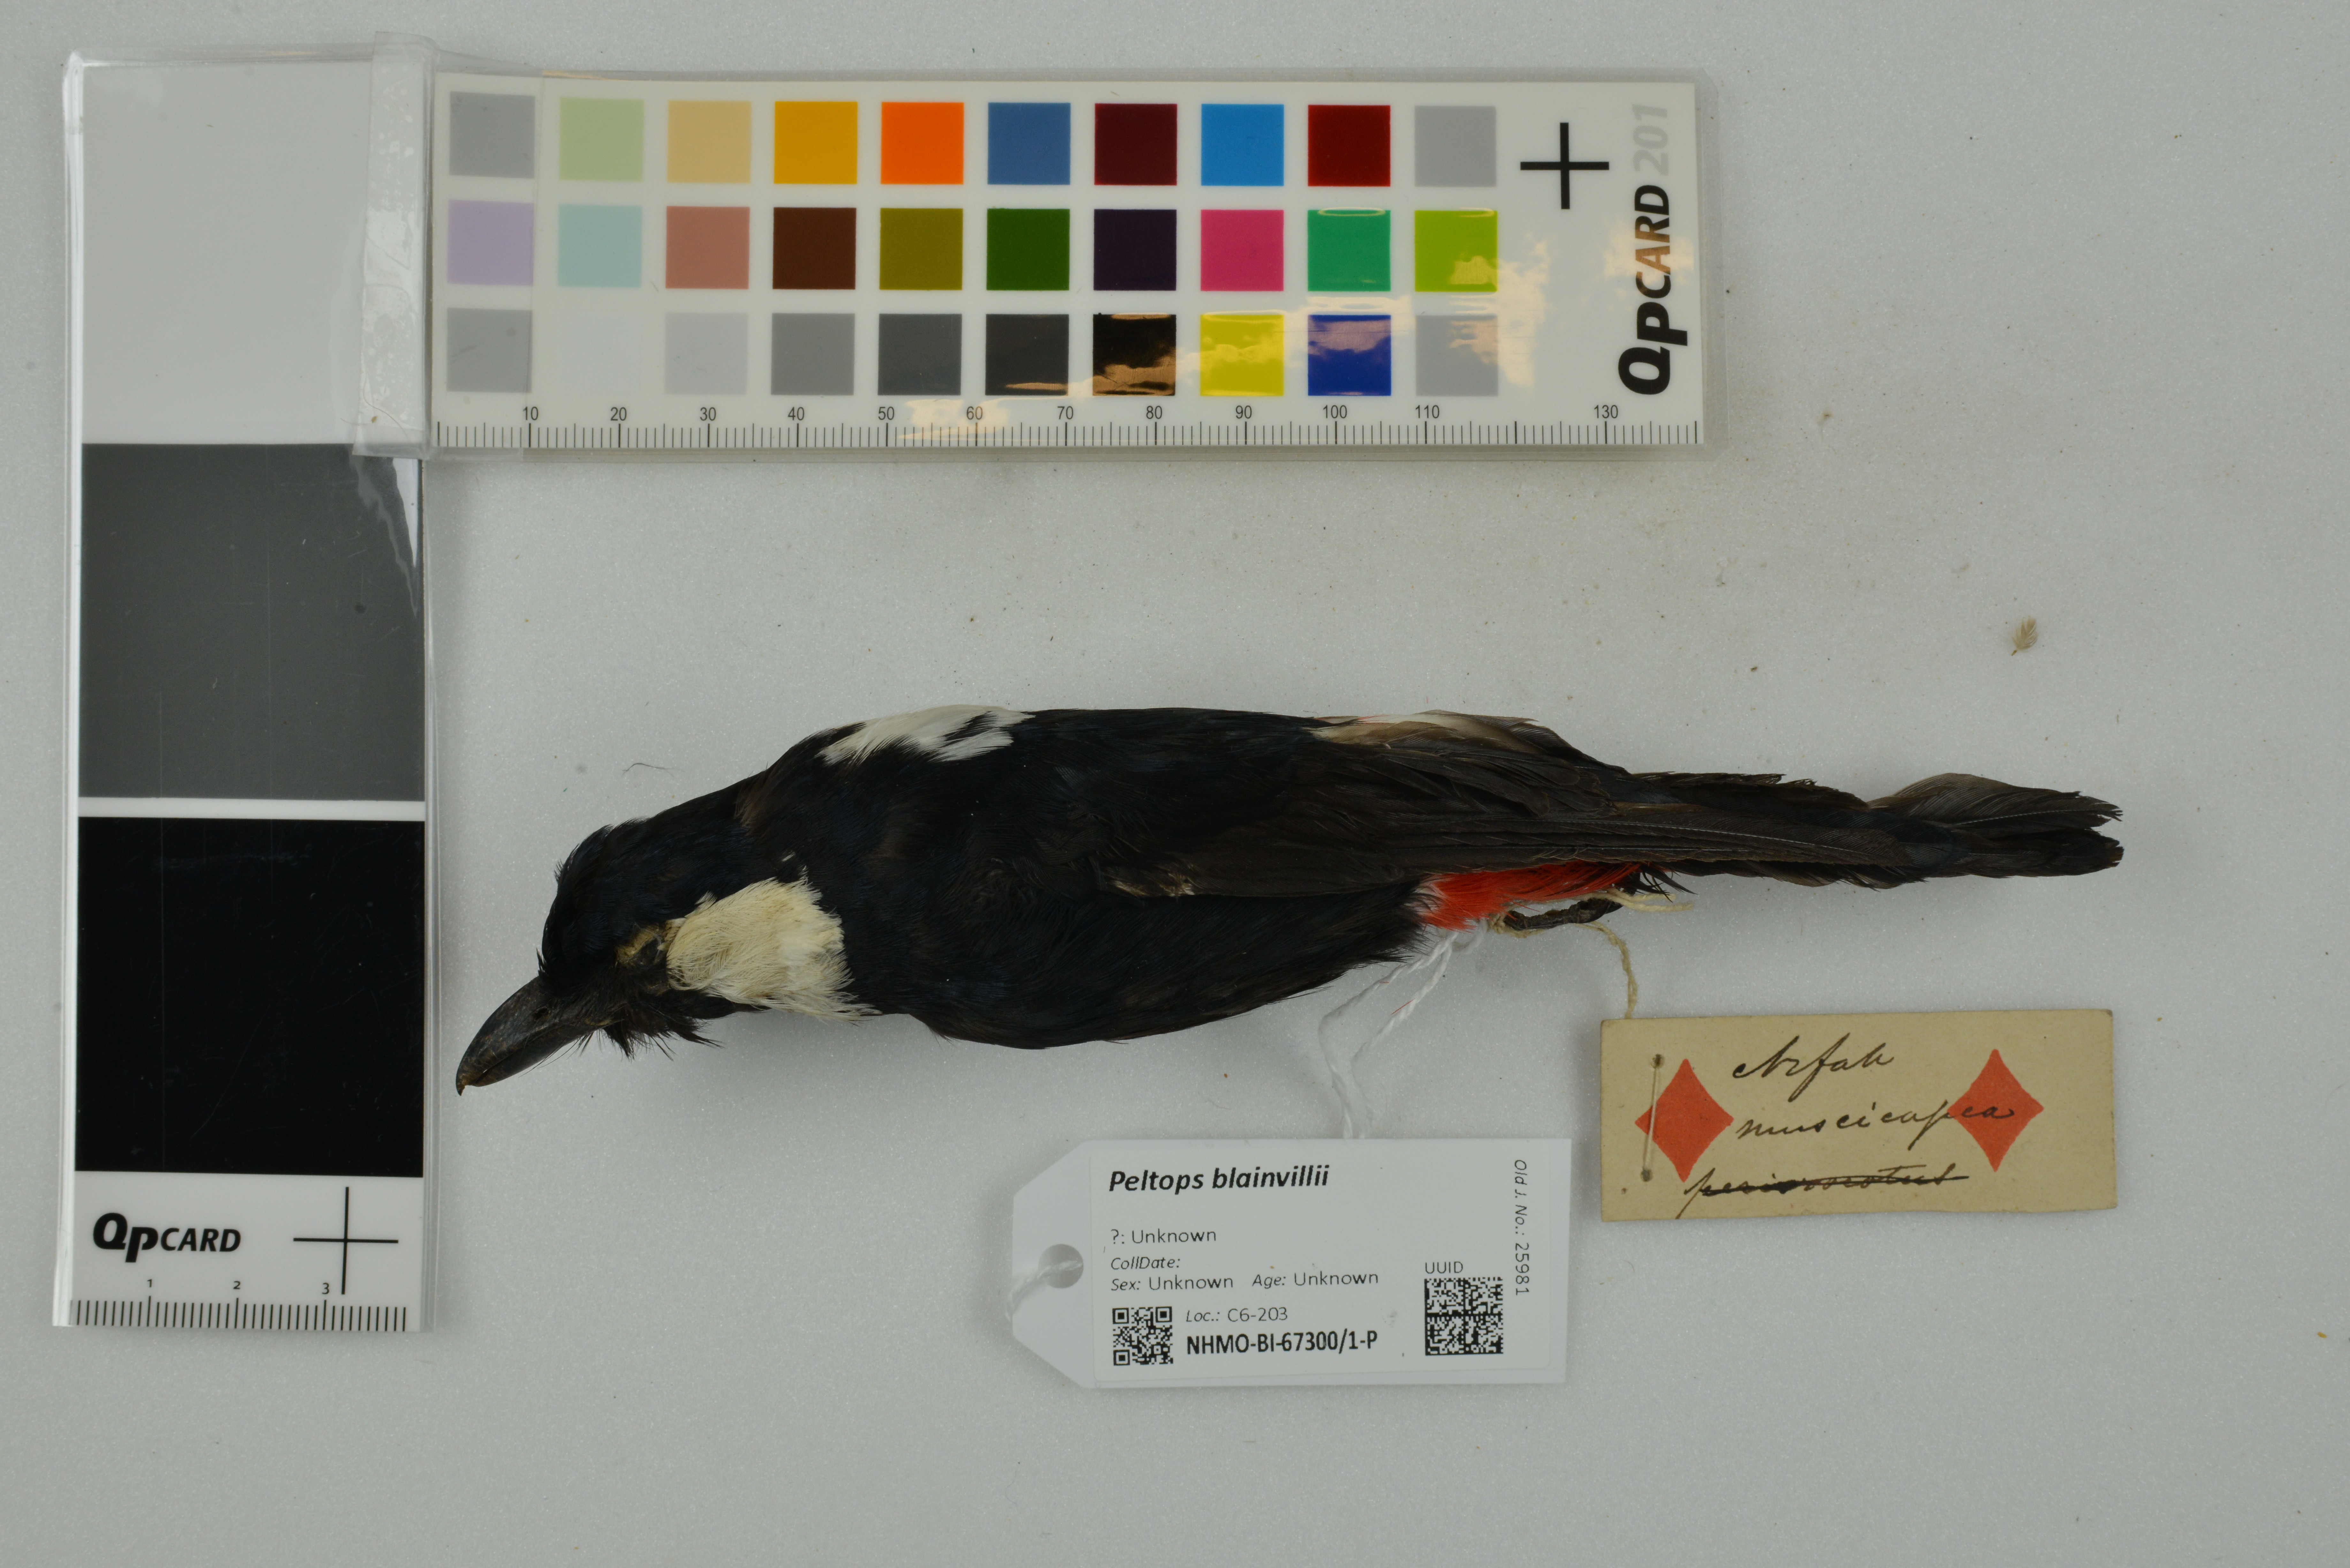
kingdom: Animalia
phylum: Chordata
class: Aves
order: Passeriformes
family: Cracticidae
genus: Peltops
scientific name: Peltops blainvillii
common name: Lowland peltops
